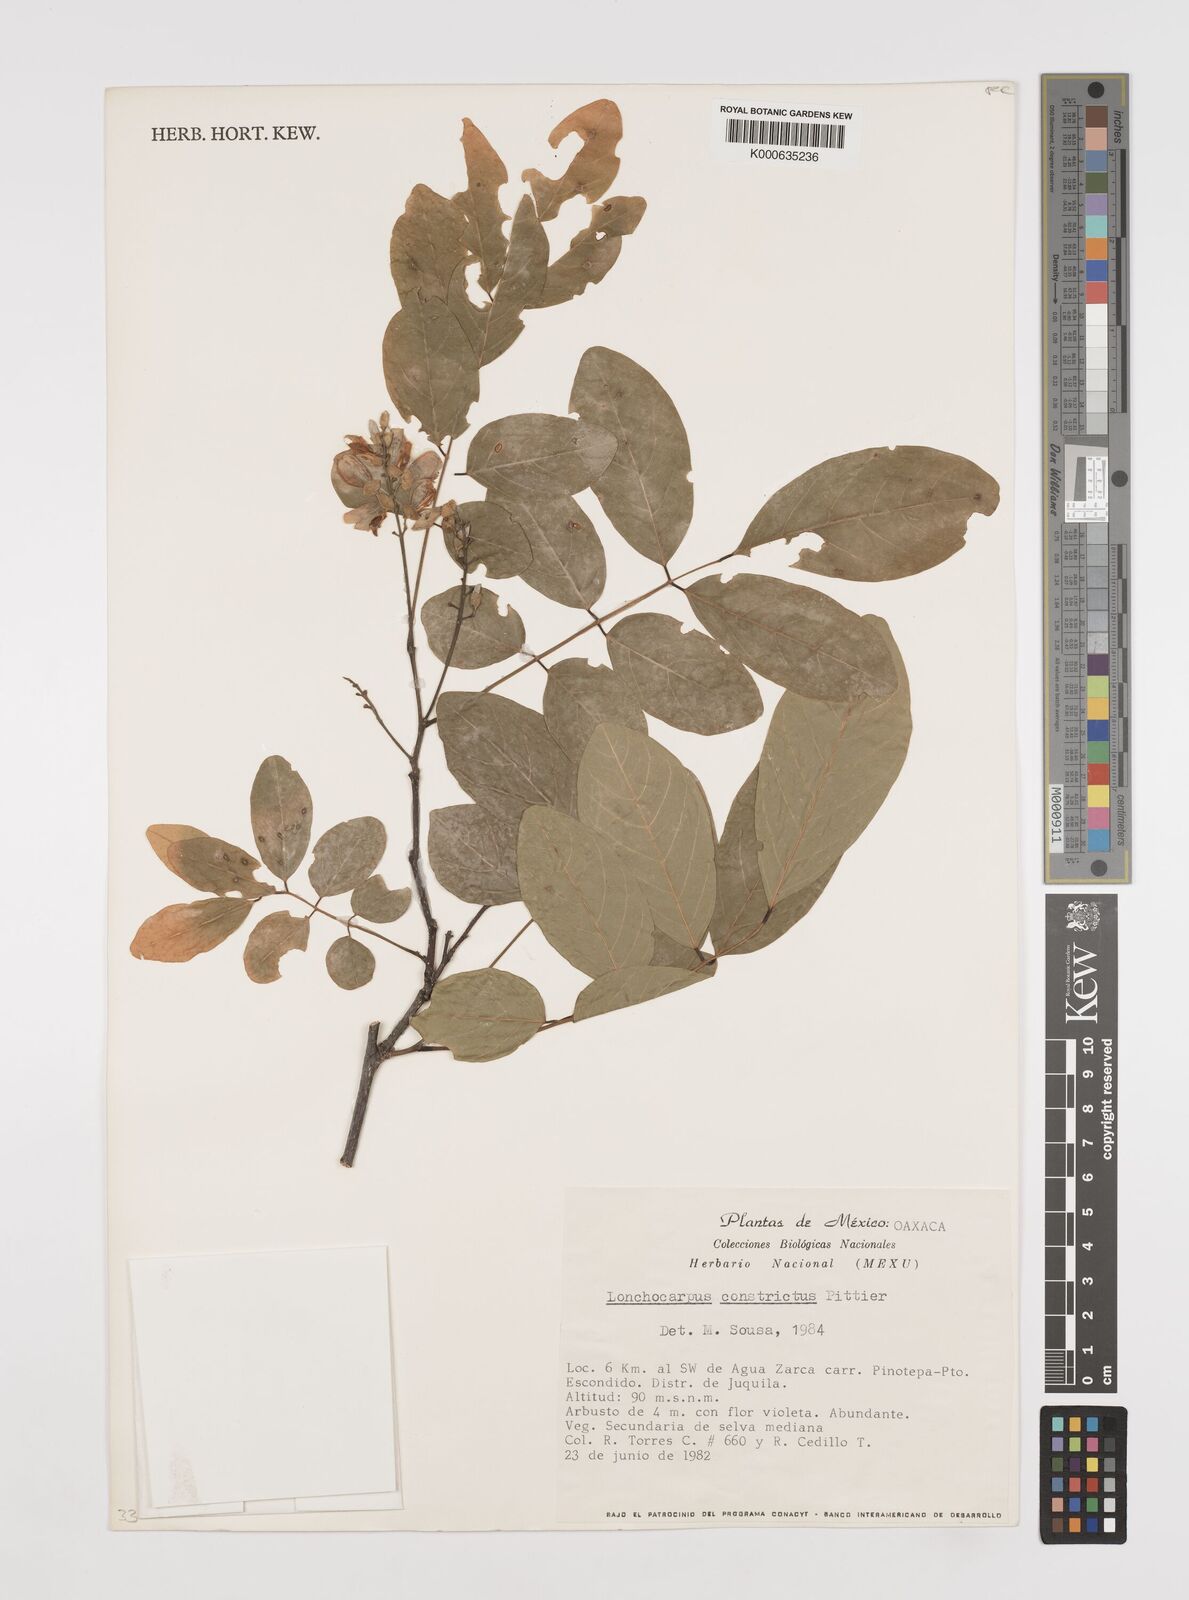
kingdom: Plantae
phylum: Tracheophyta
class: Magnoliopsida
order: Fabales
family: Fabaceae
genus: Lonchocarpus
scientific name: Lonchocarpus constrictus
